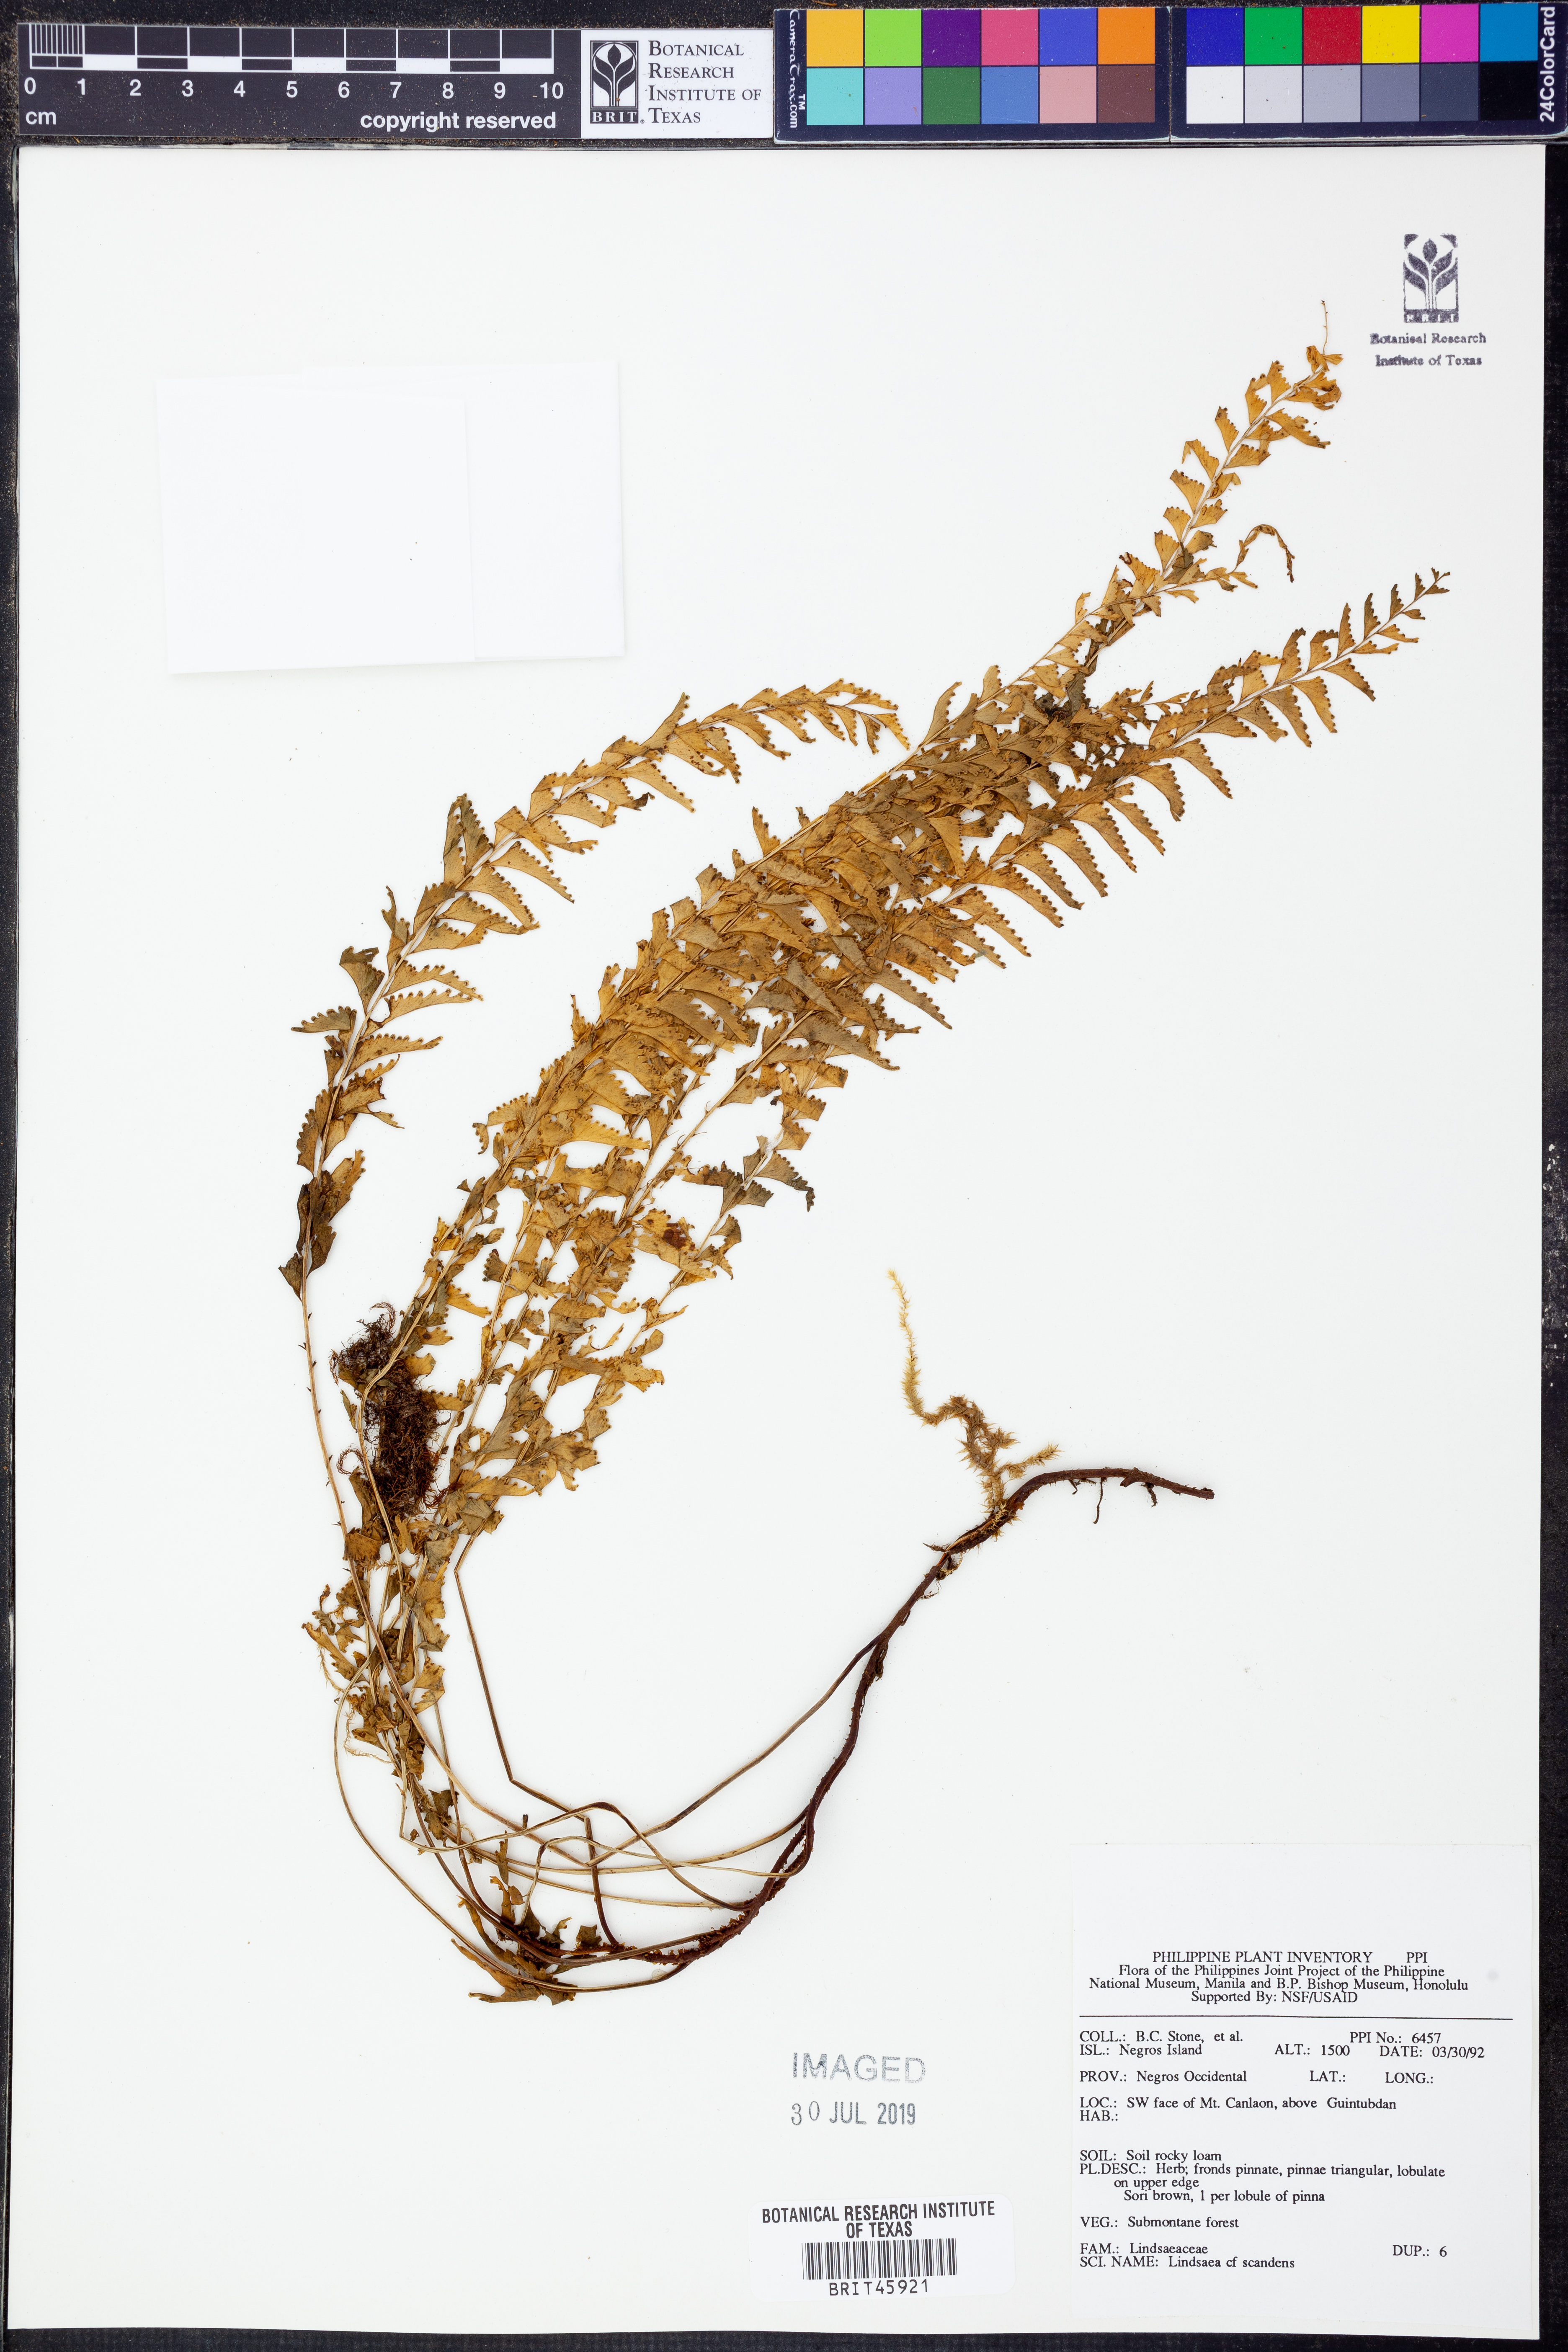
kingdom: Plantae
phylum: Tracheophyta
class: Polypodiopsida
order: Polypodiales
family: Lindsaeaceae
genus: Nesolindsaea
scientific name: Nesolindsaea caudata
